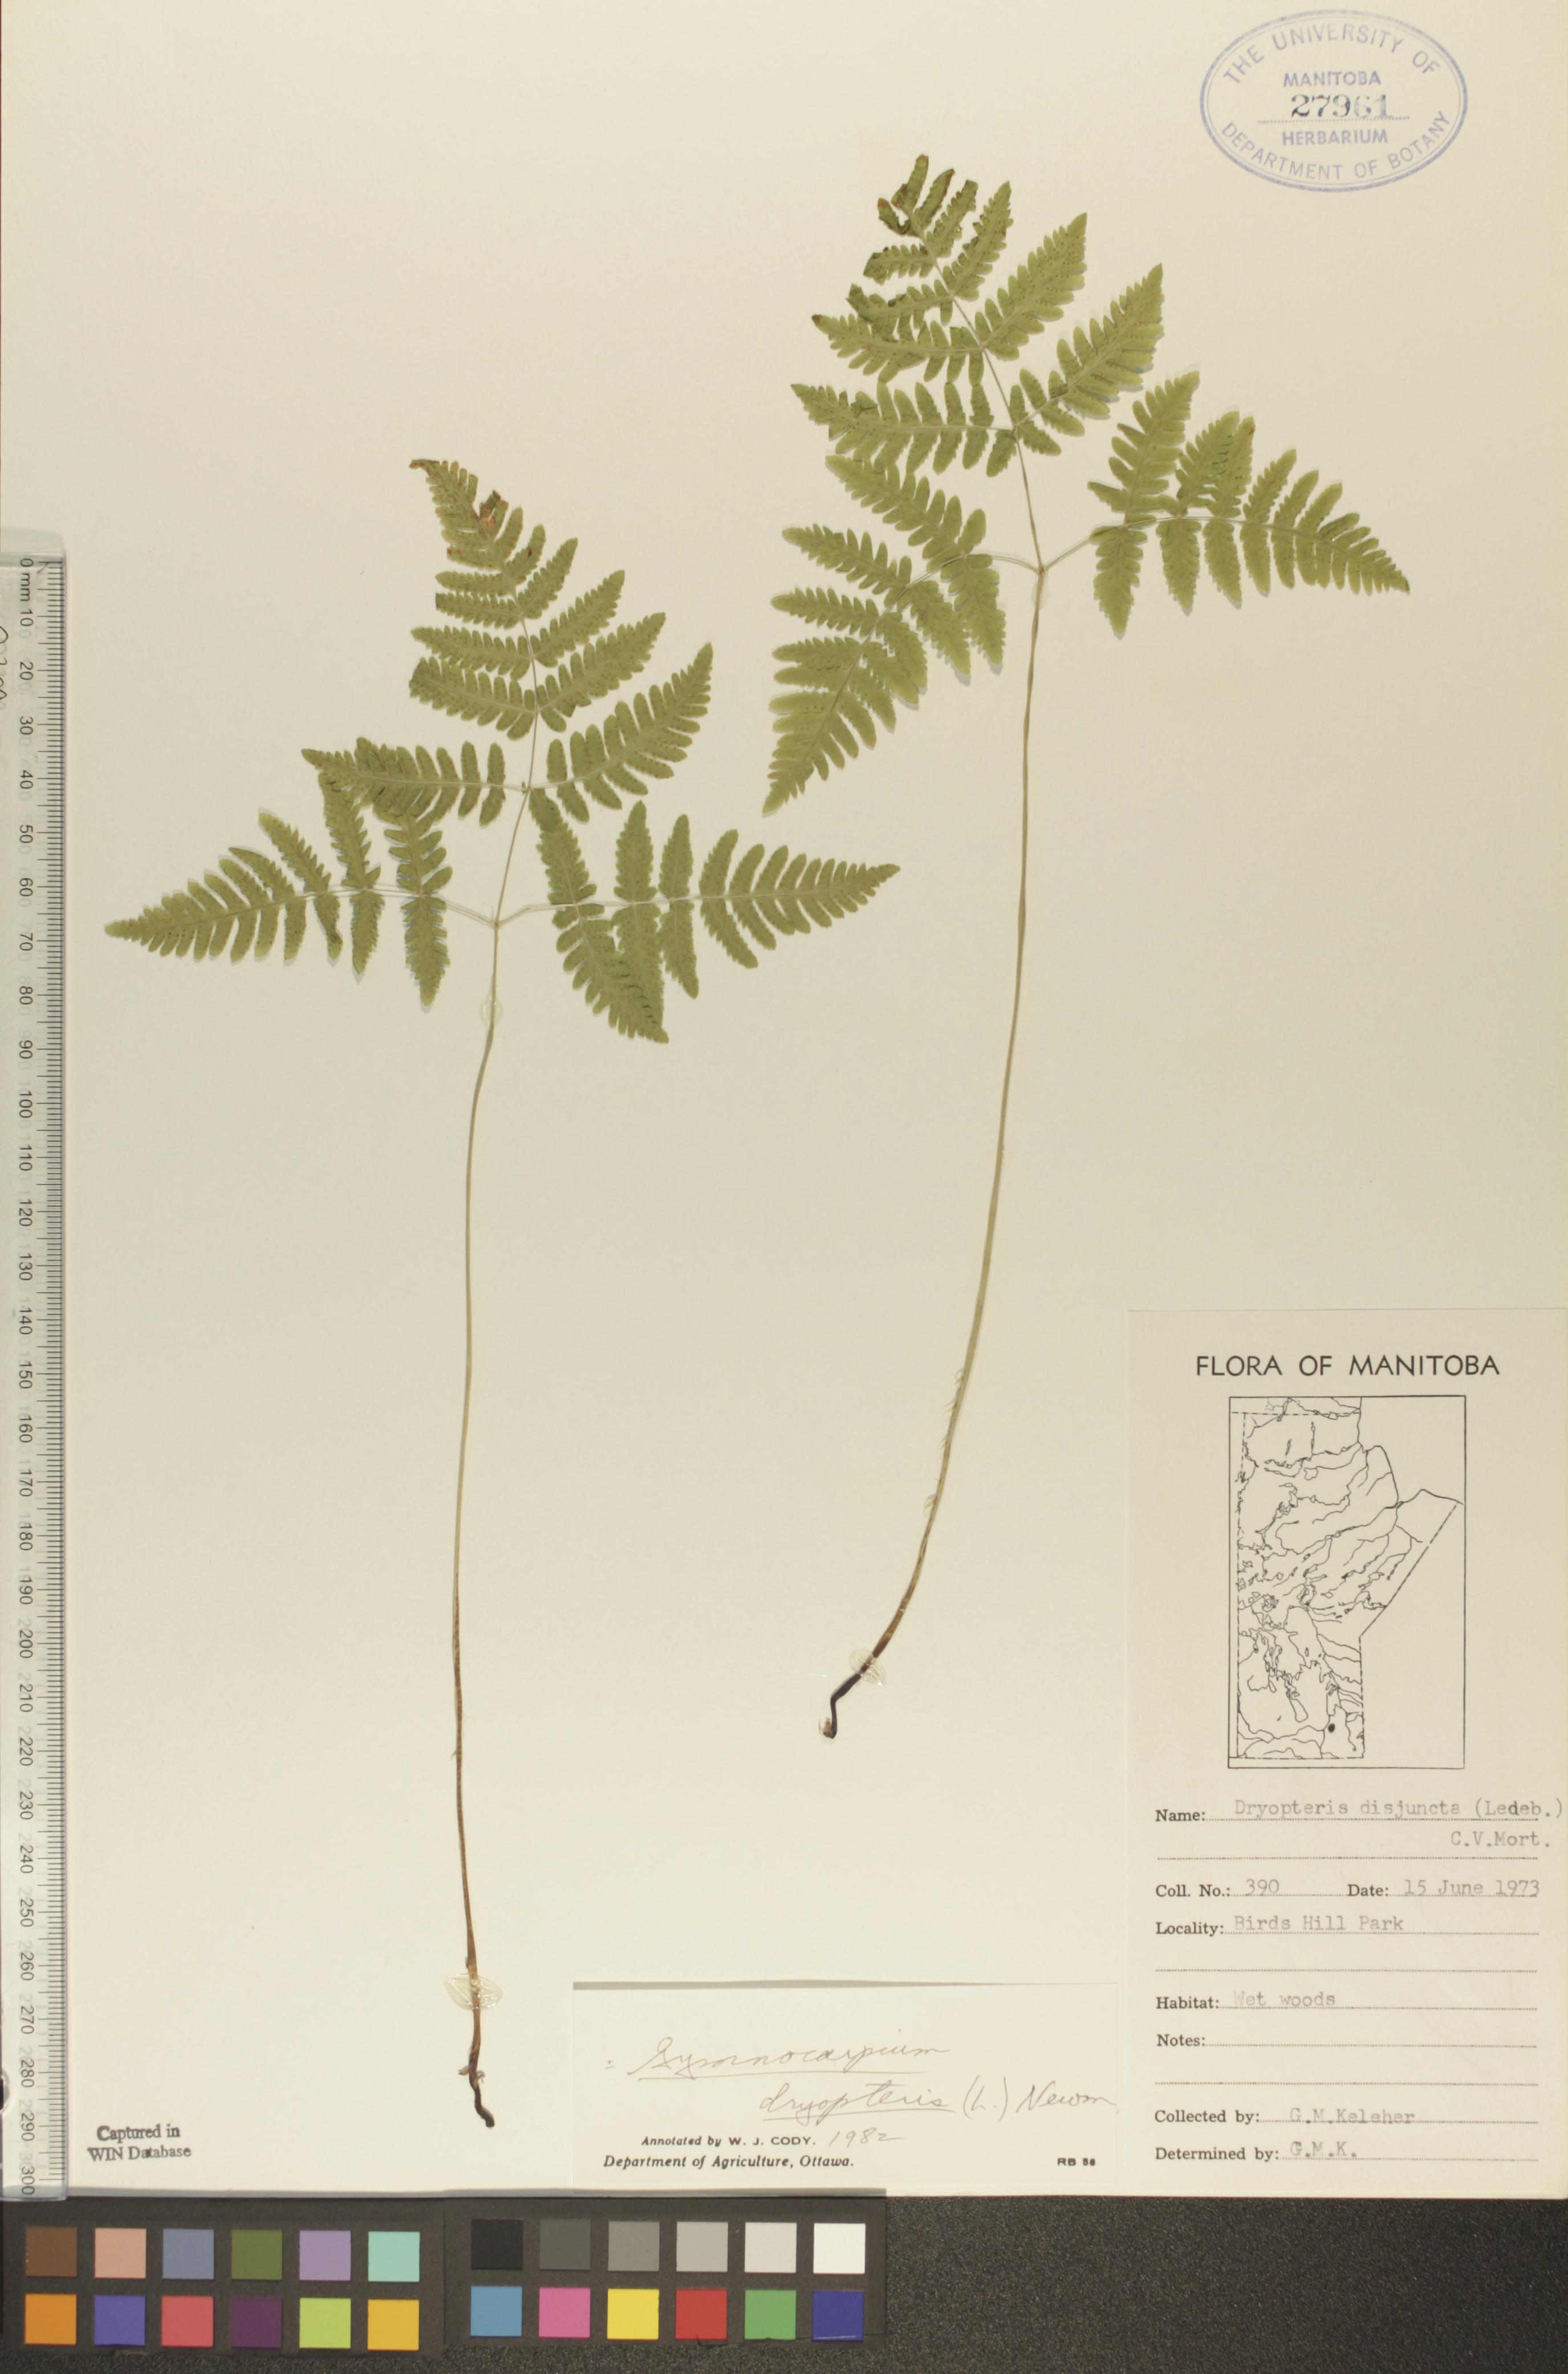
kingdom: Plantae
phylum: Tracheophyta
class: Polypodiopsida
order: Polypodiales
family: Cystopteridaceae
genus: Gymnocarpium
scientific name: Gymnocarpium dryopteris
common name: Oak fern
